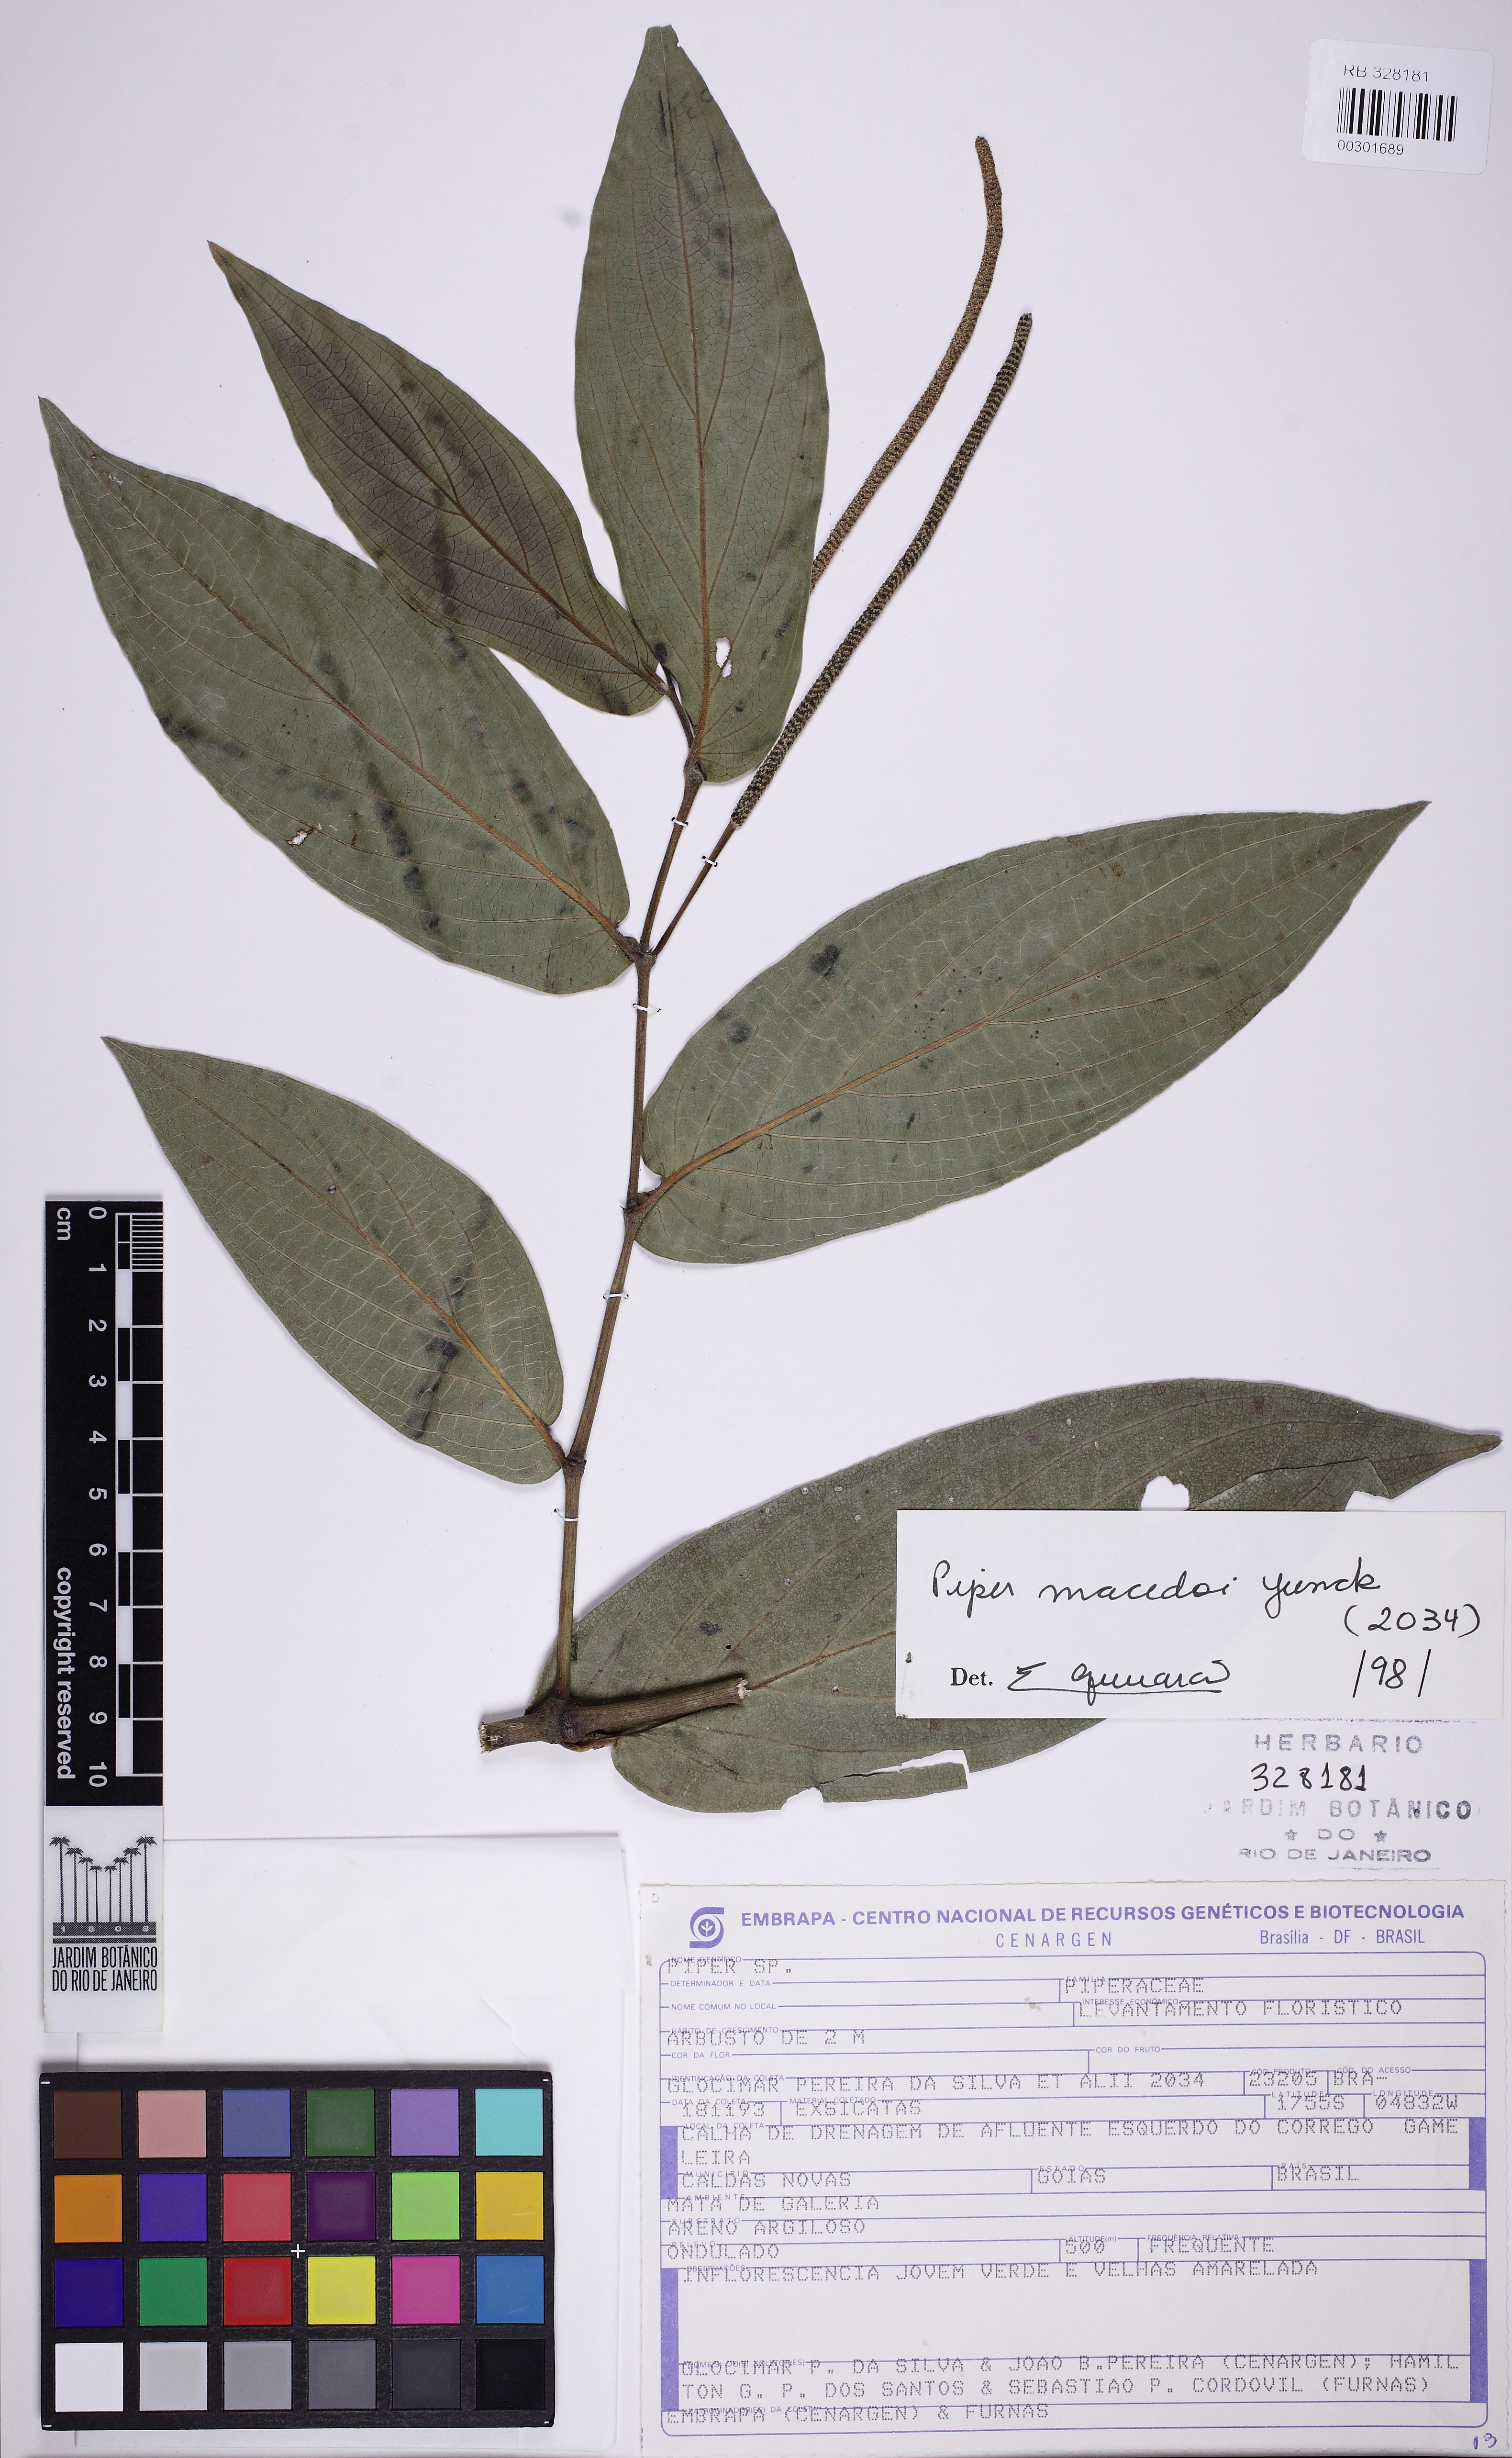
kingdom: Plantae
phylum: Tracheophyta
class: Magnoliopsida
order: Piperales
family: Piperaceae
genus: Piper
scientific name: Piper macedoi
